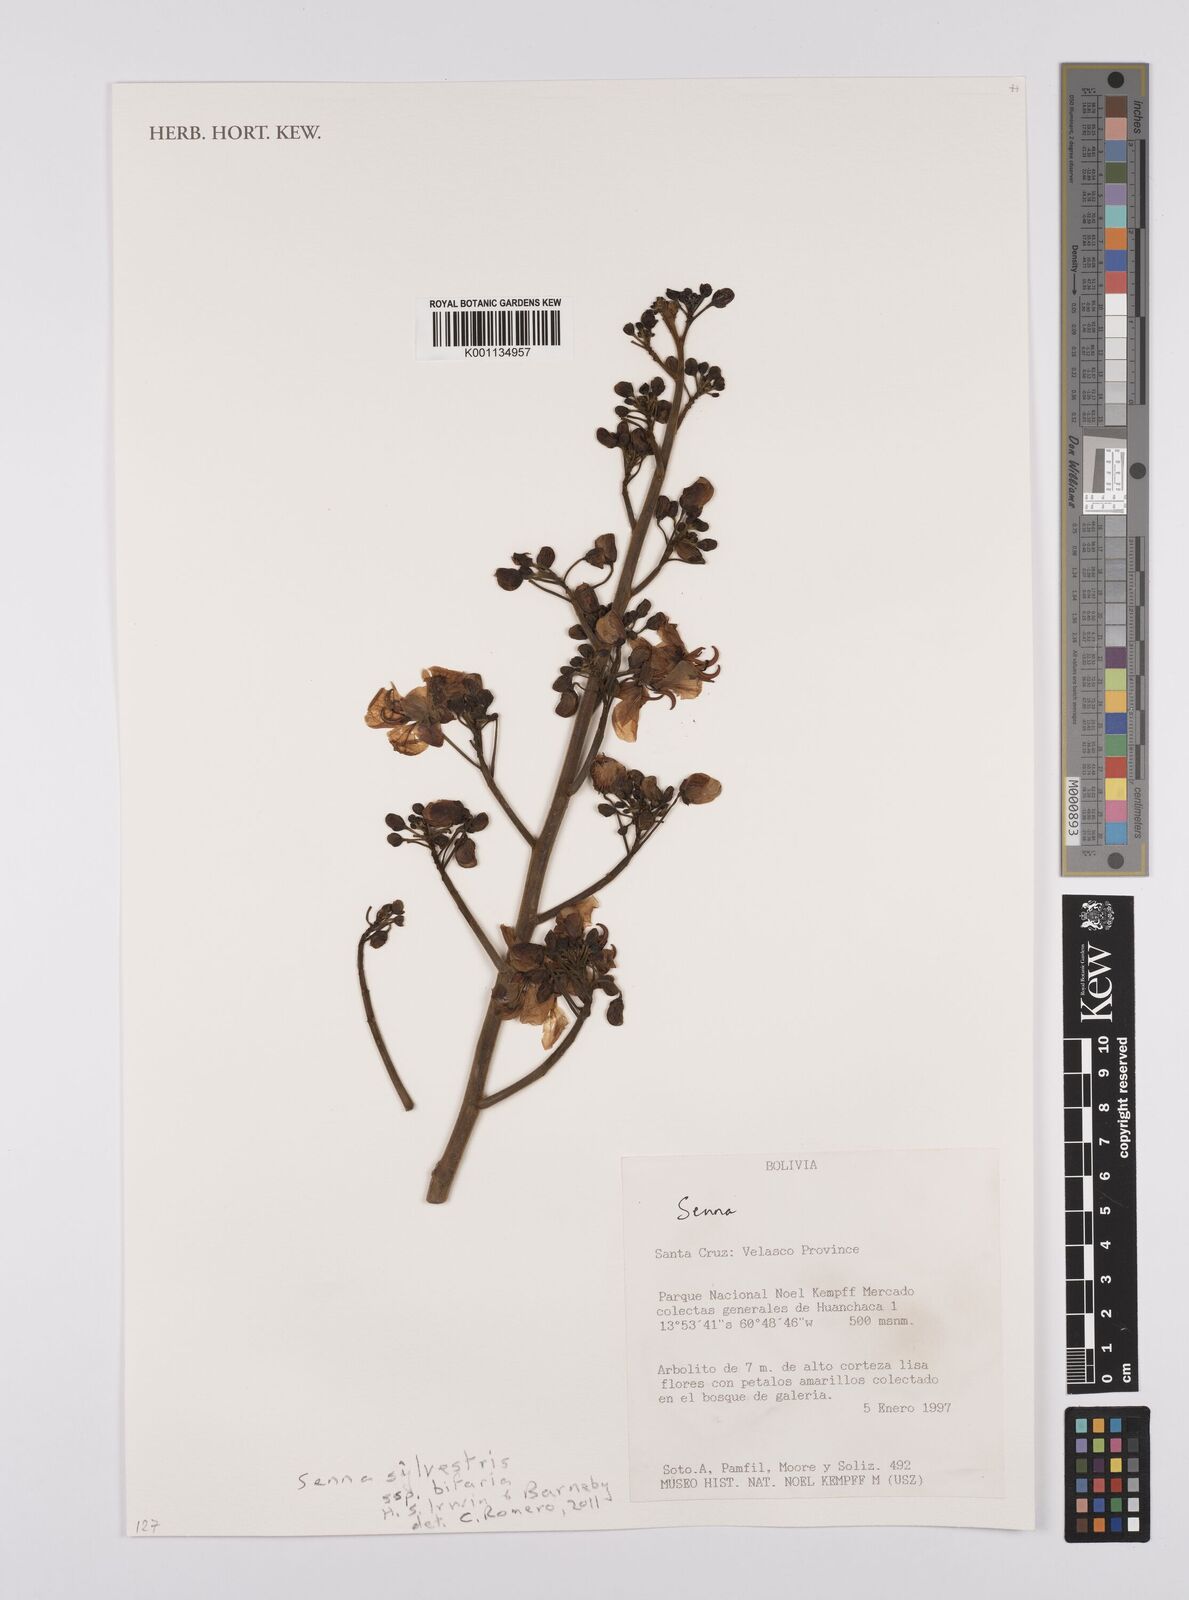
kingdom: Plantae
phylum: Tracheophyta
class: Magnoliopsida
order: Fabales
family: Fabaceae
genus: Senna
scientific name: Senna
